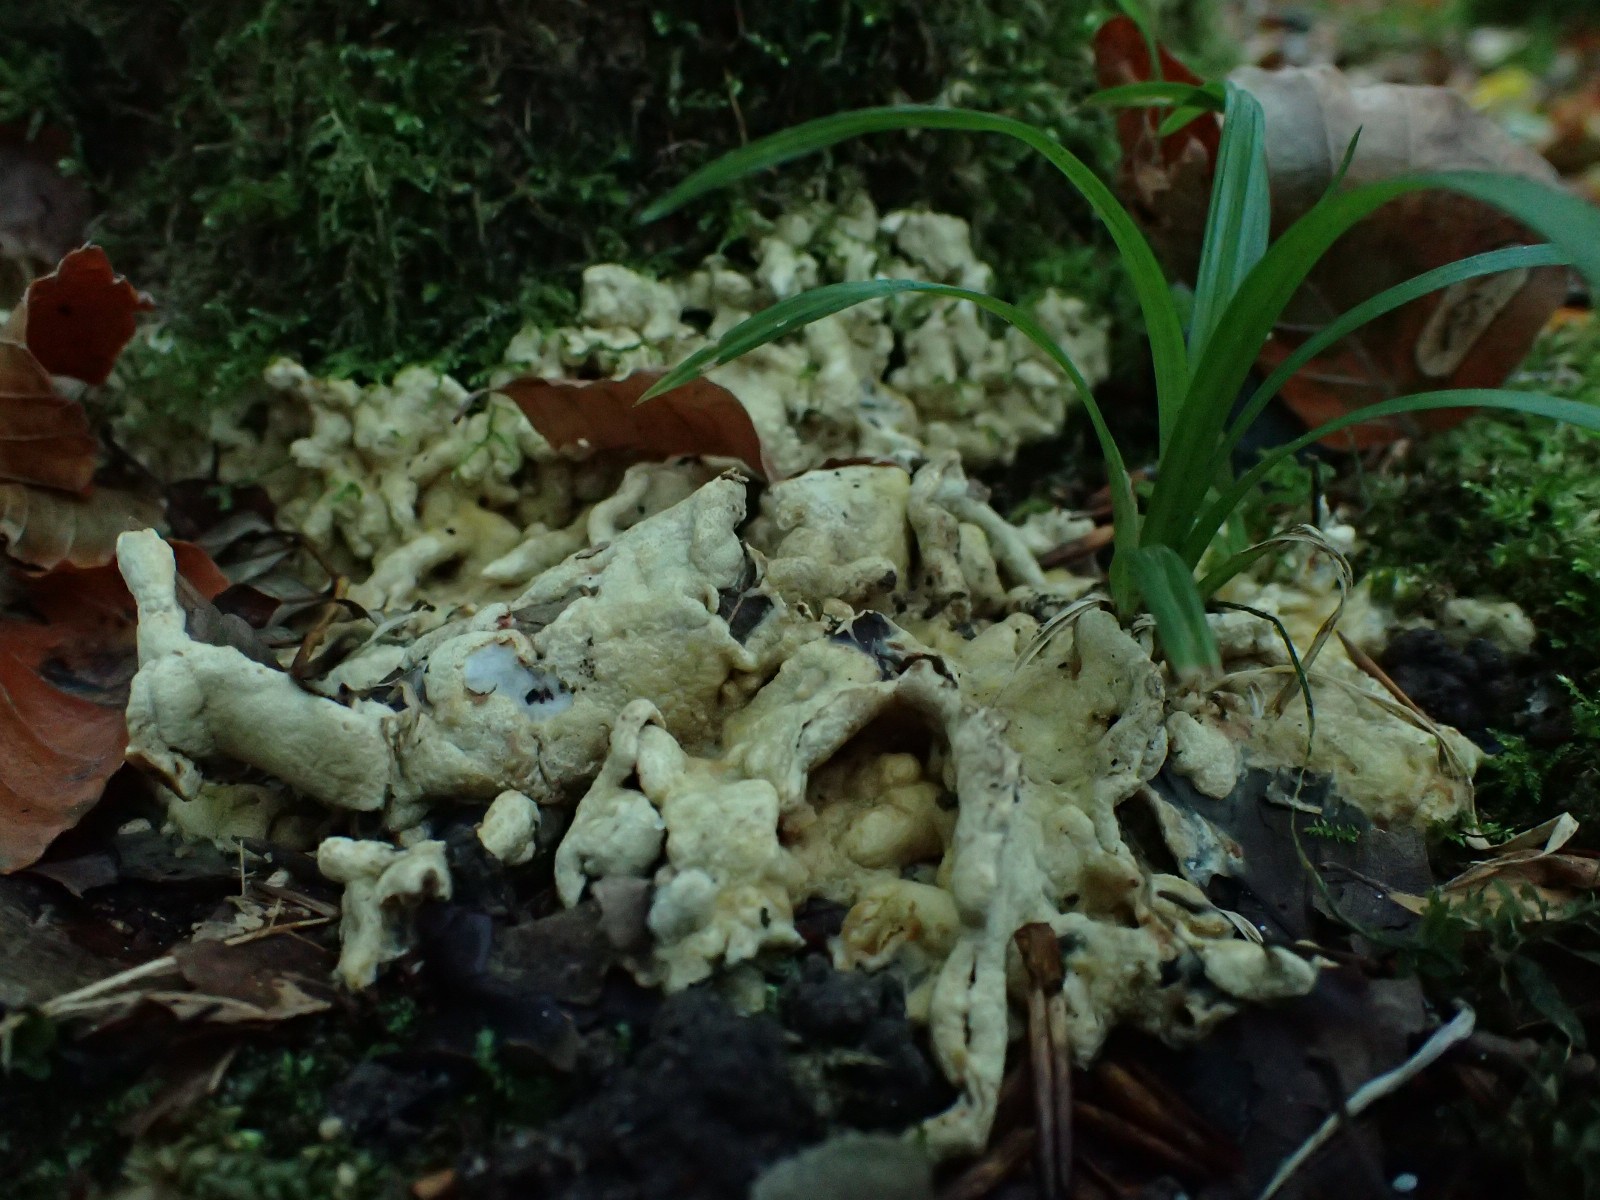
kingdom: Fungi
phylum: Ascomycota
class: Sordariomycetes
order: Hypocreales
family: Hypocreaceae
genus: Trichoderma
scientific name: Trichoderma citrinum
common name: udbredt kødkerne
